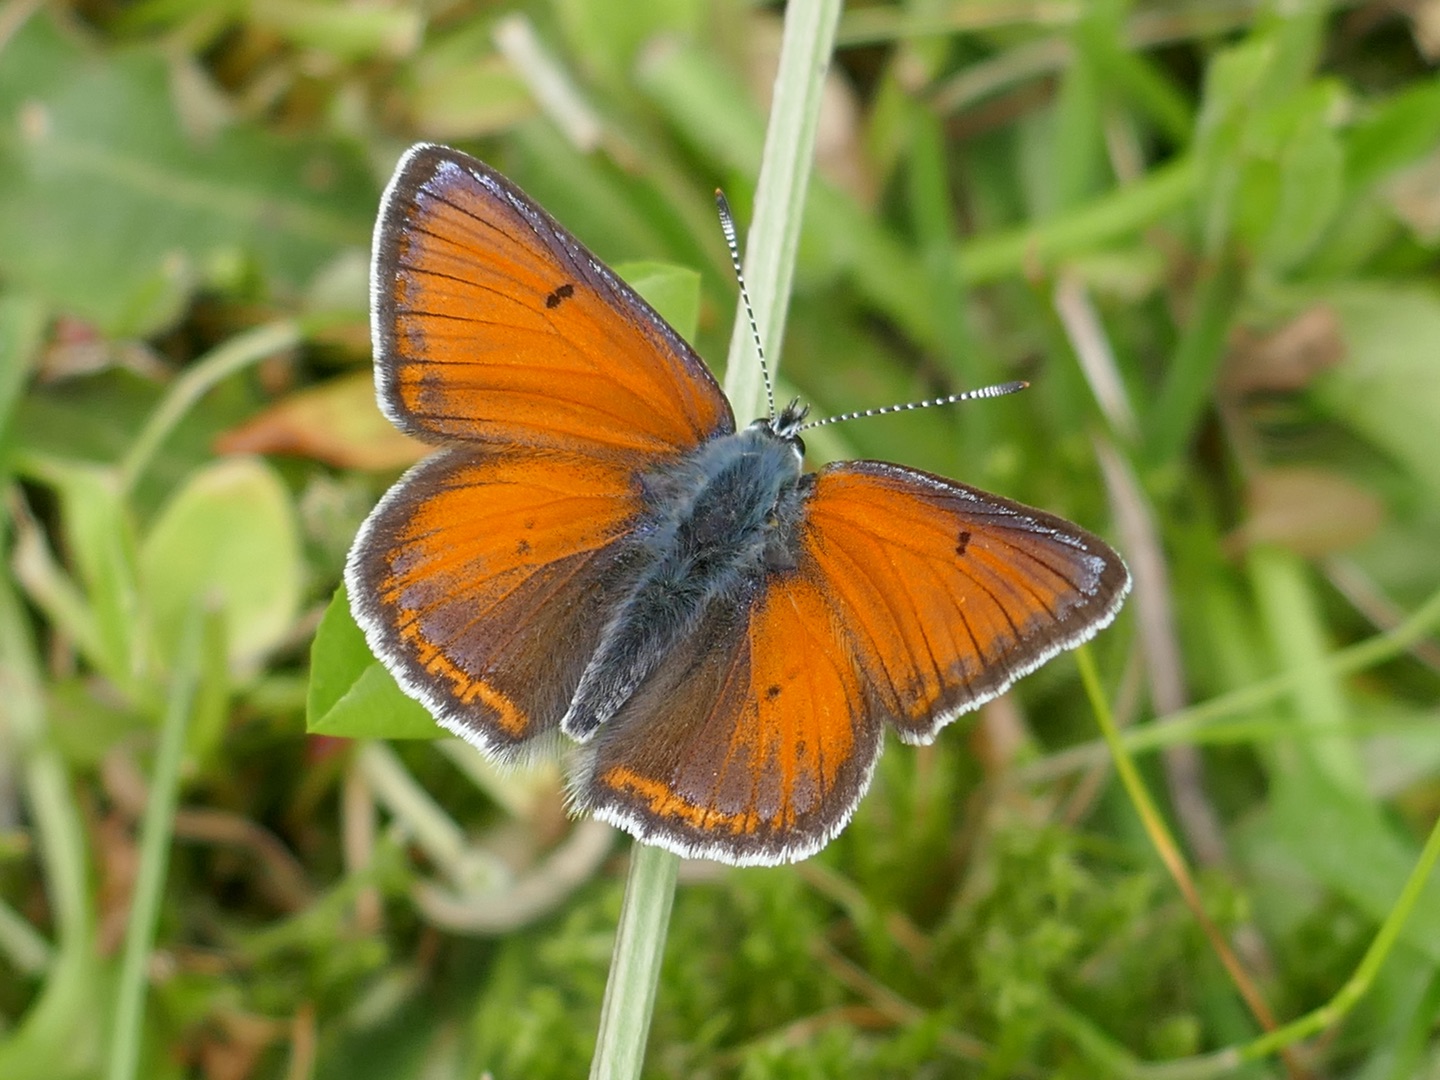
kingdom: Animalia
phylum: Arthropoda
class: Insecta
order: Lepidoptera
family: Lycaenidae
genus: Palaeochrysophanus
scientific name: Palaeochrysophanus hippothoe
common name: Violetrandet ildfugl
